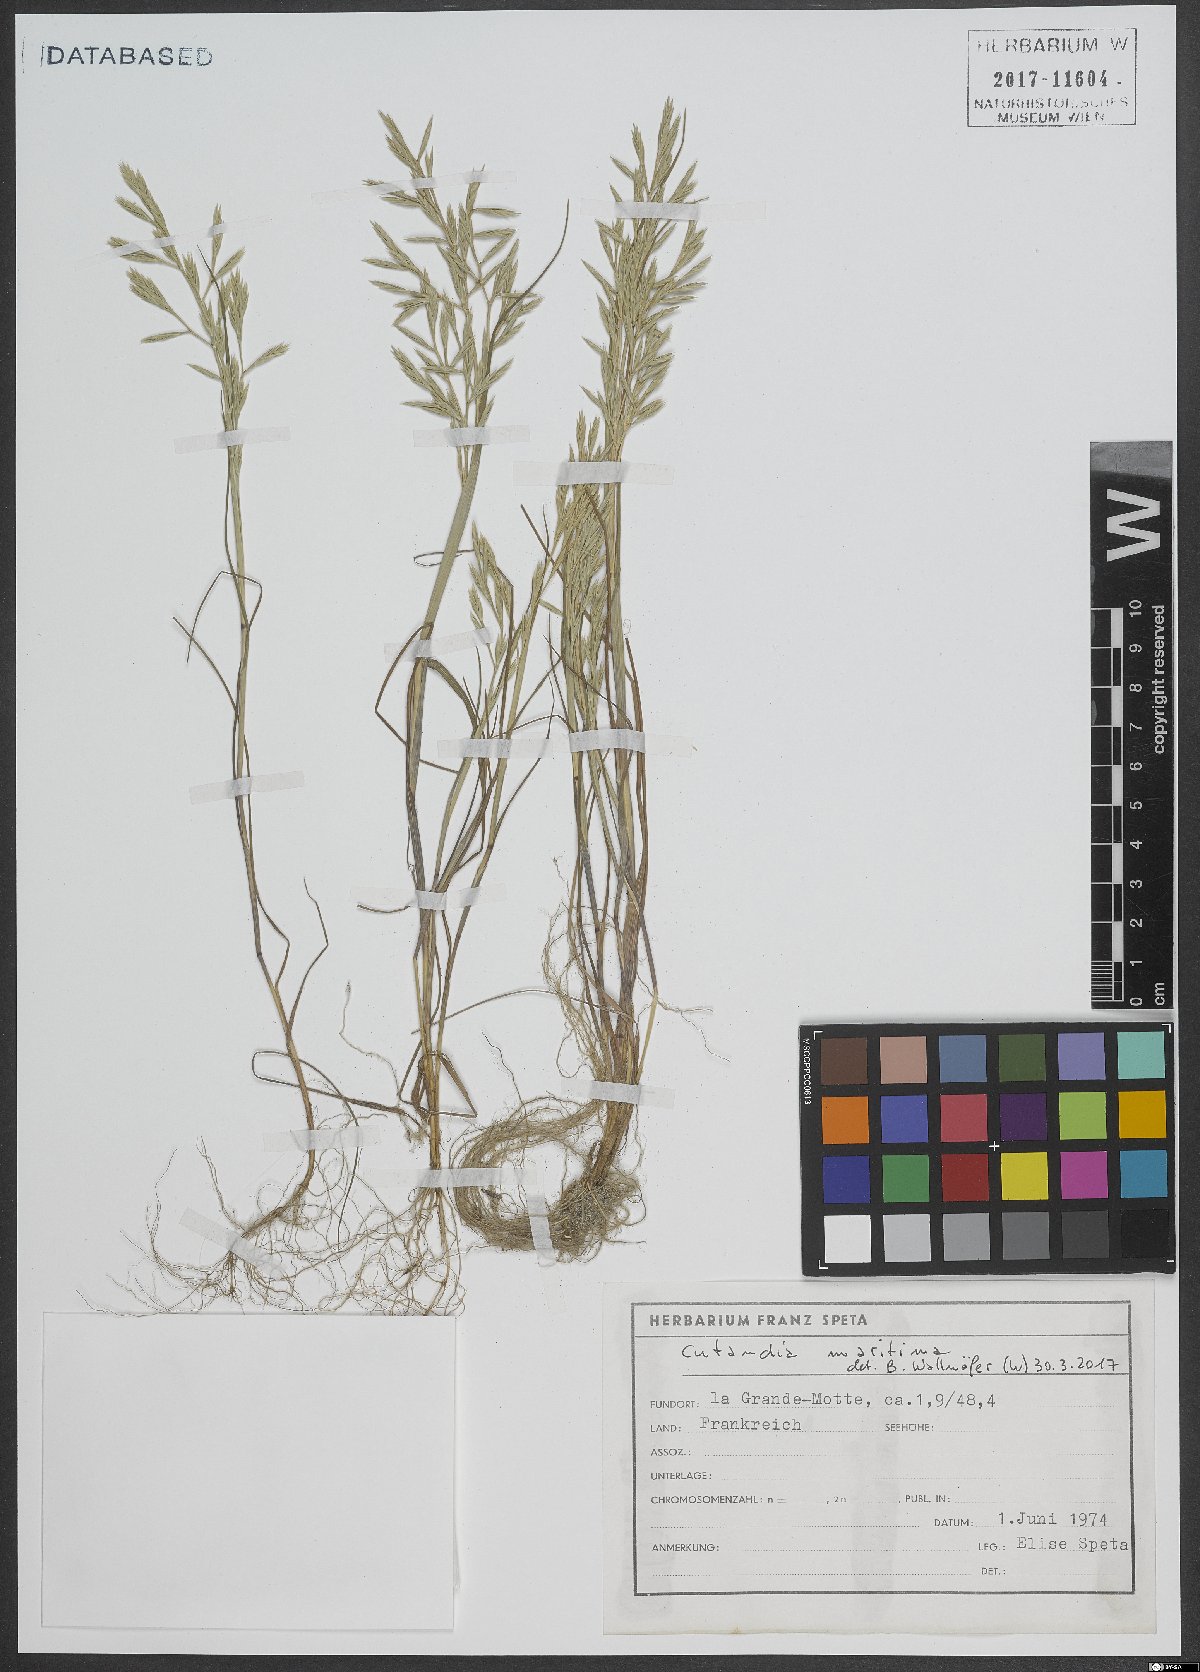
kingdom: Plantae
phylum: Tracheophyta
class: Liliopsida
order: Poales
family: Poaceae
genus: Cutandia
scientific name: Cutandia maritima
